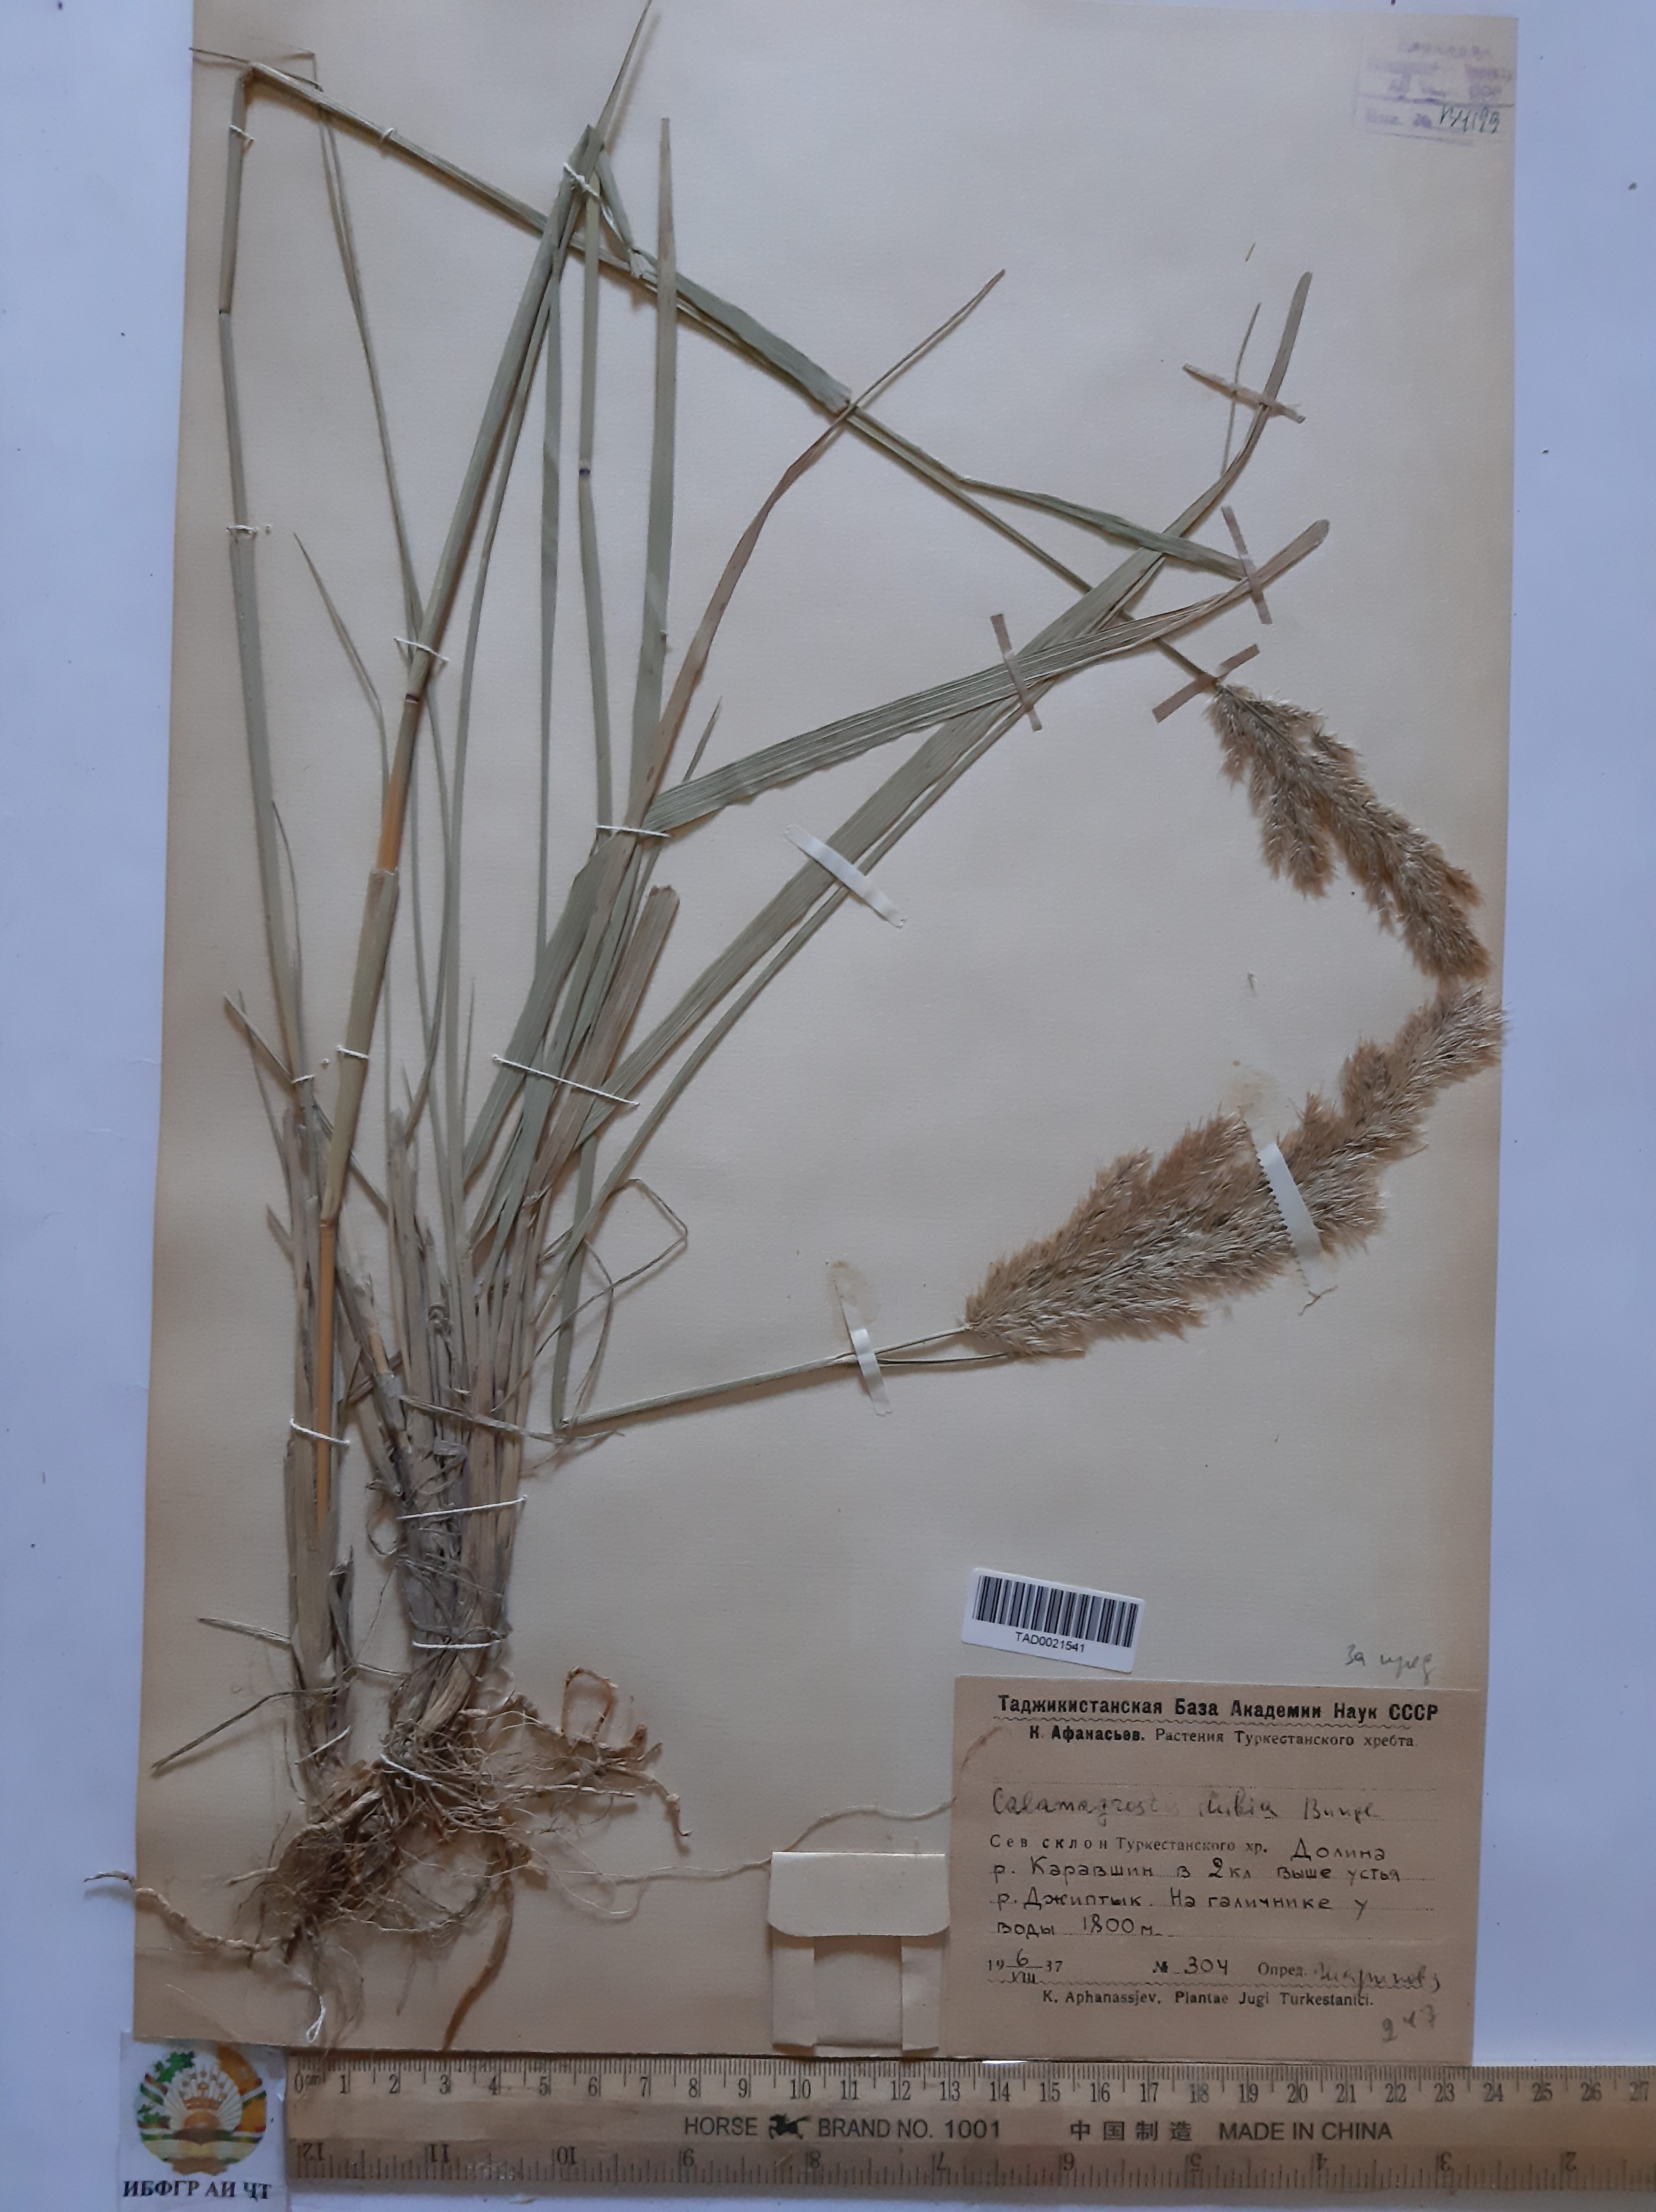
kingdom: Plantae
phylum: Tracheophyta
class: Liliopsida
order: Poales
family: Poaceae
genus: Calamagrostis
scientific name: Calamagrostis pseudophragmites
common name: Coastal small-reed
